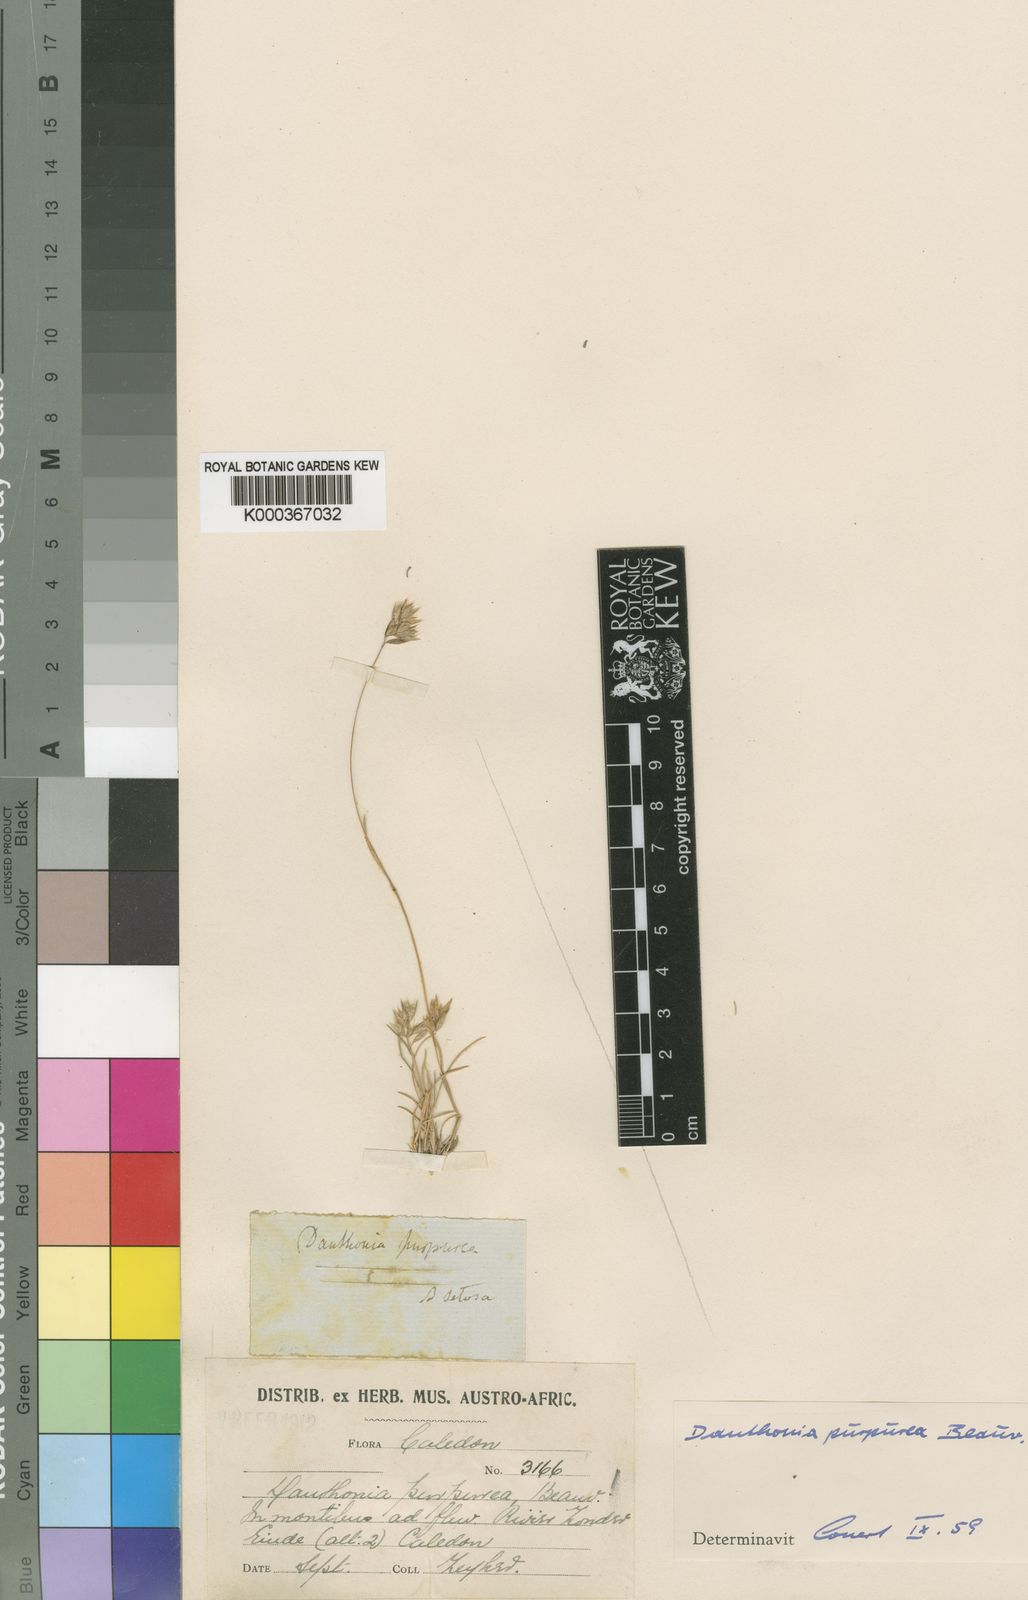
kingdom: Plantae
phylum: Tracheophyta
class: Liliopsida
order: Poales
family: Poaceae
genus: Rytidosperma
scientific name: Rytidosperma
